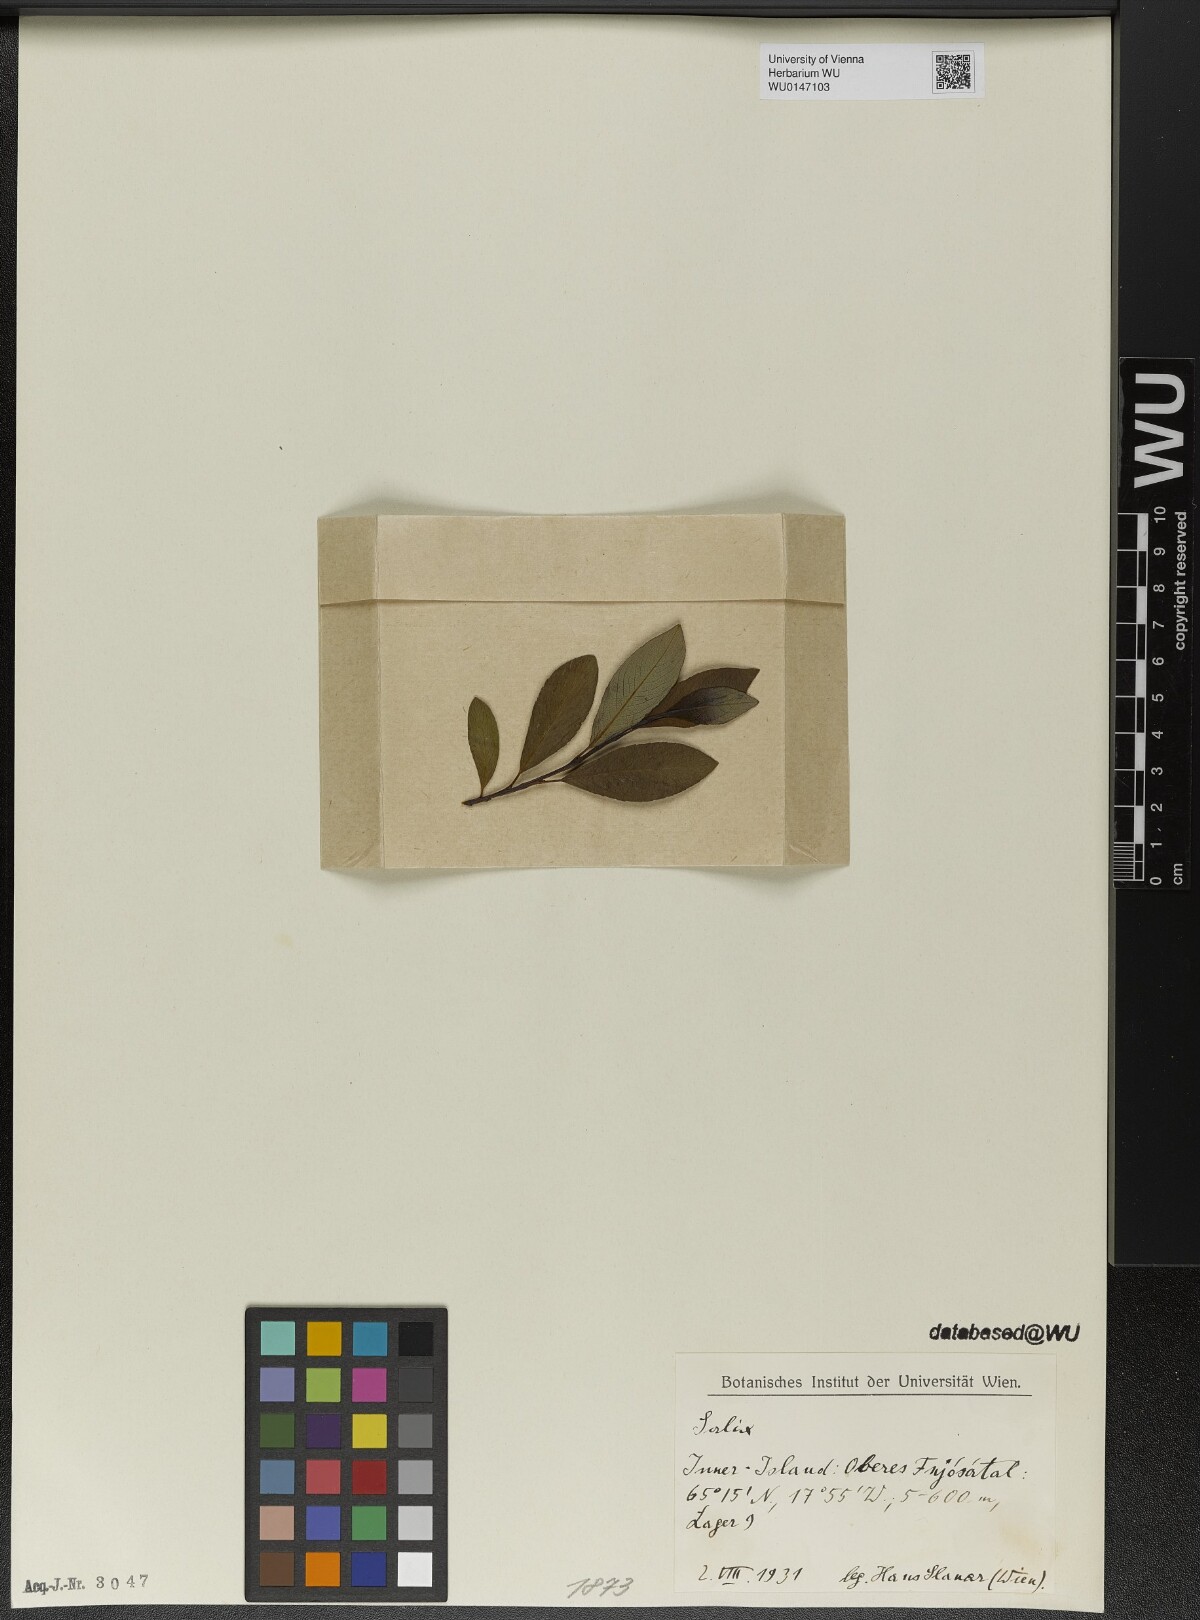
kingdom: Plantae
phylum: Tracheophyta
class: Magnoliopsida
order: Malpighiales
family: Salicaceae
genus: Salix
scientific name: Salix
